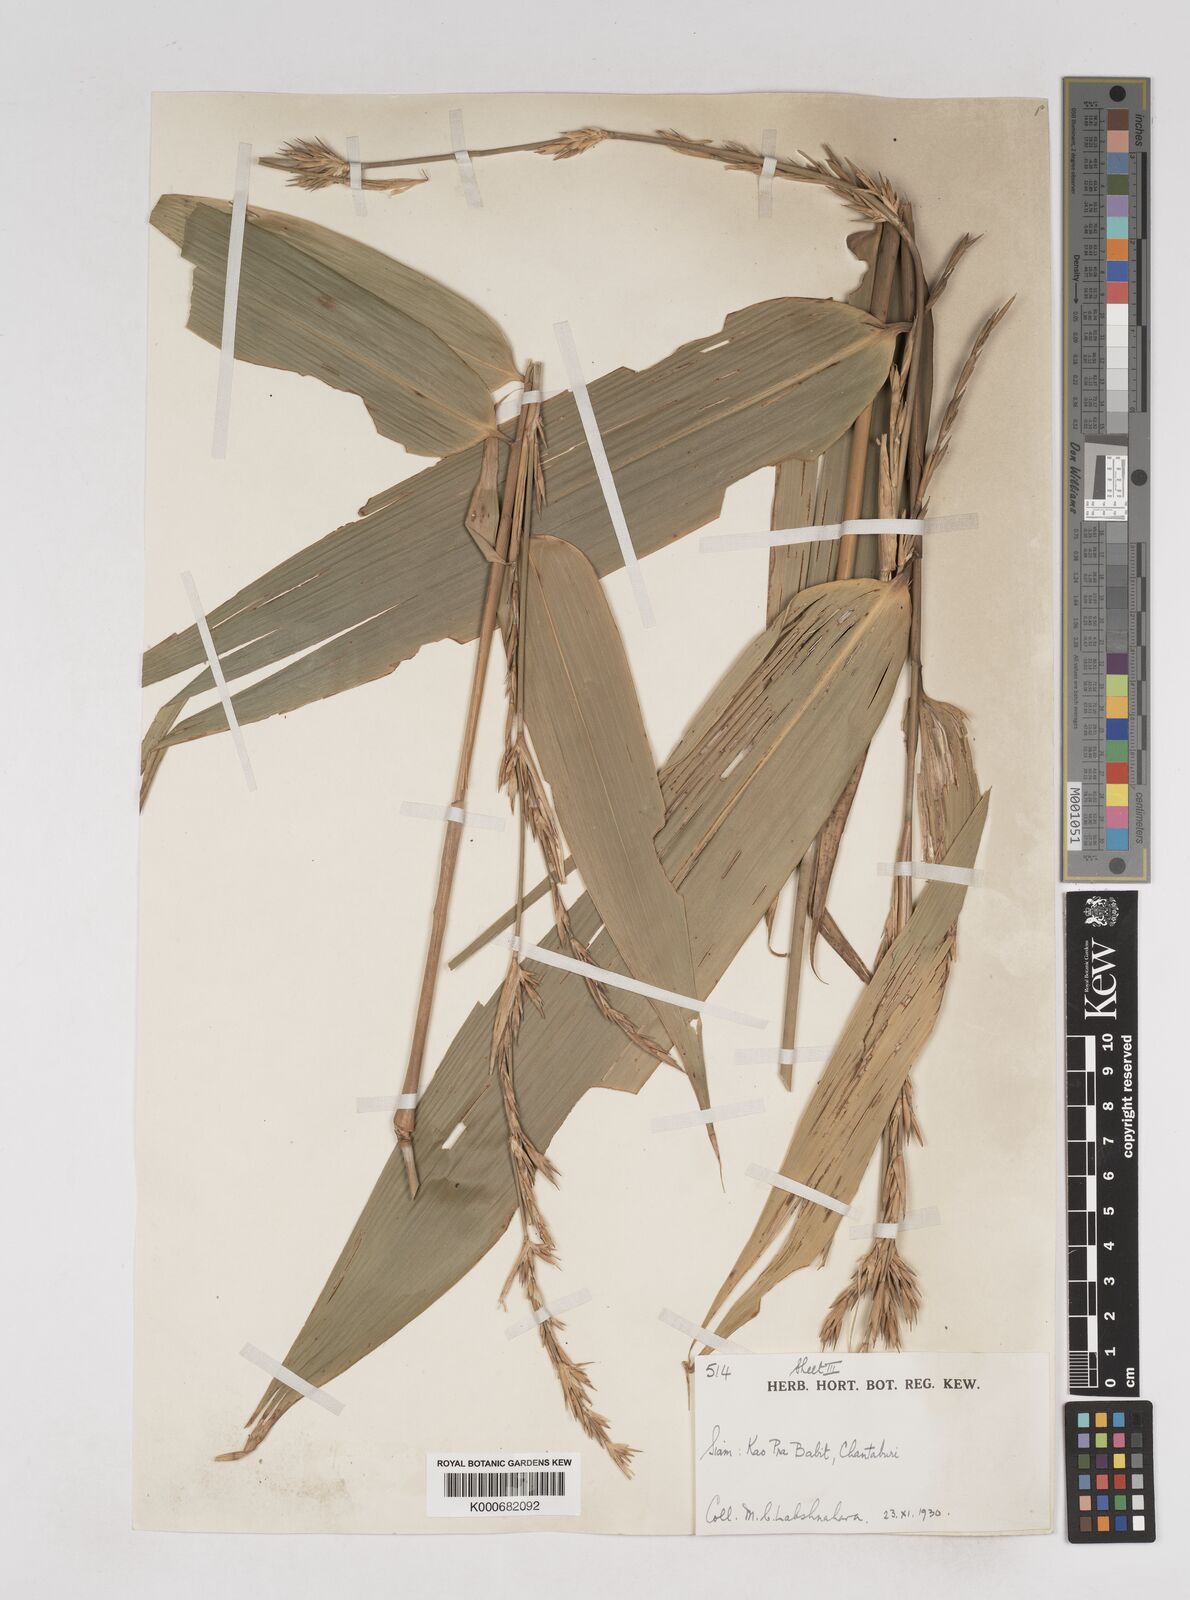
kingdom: Plantae
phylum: Tracheophyta
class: Liliopsida
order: Poales
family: Poaceae
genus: Schizostachyum
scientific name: Schizostachyum
